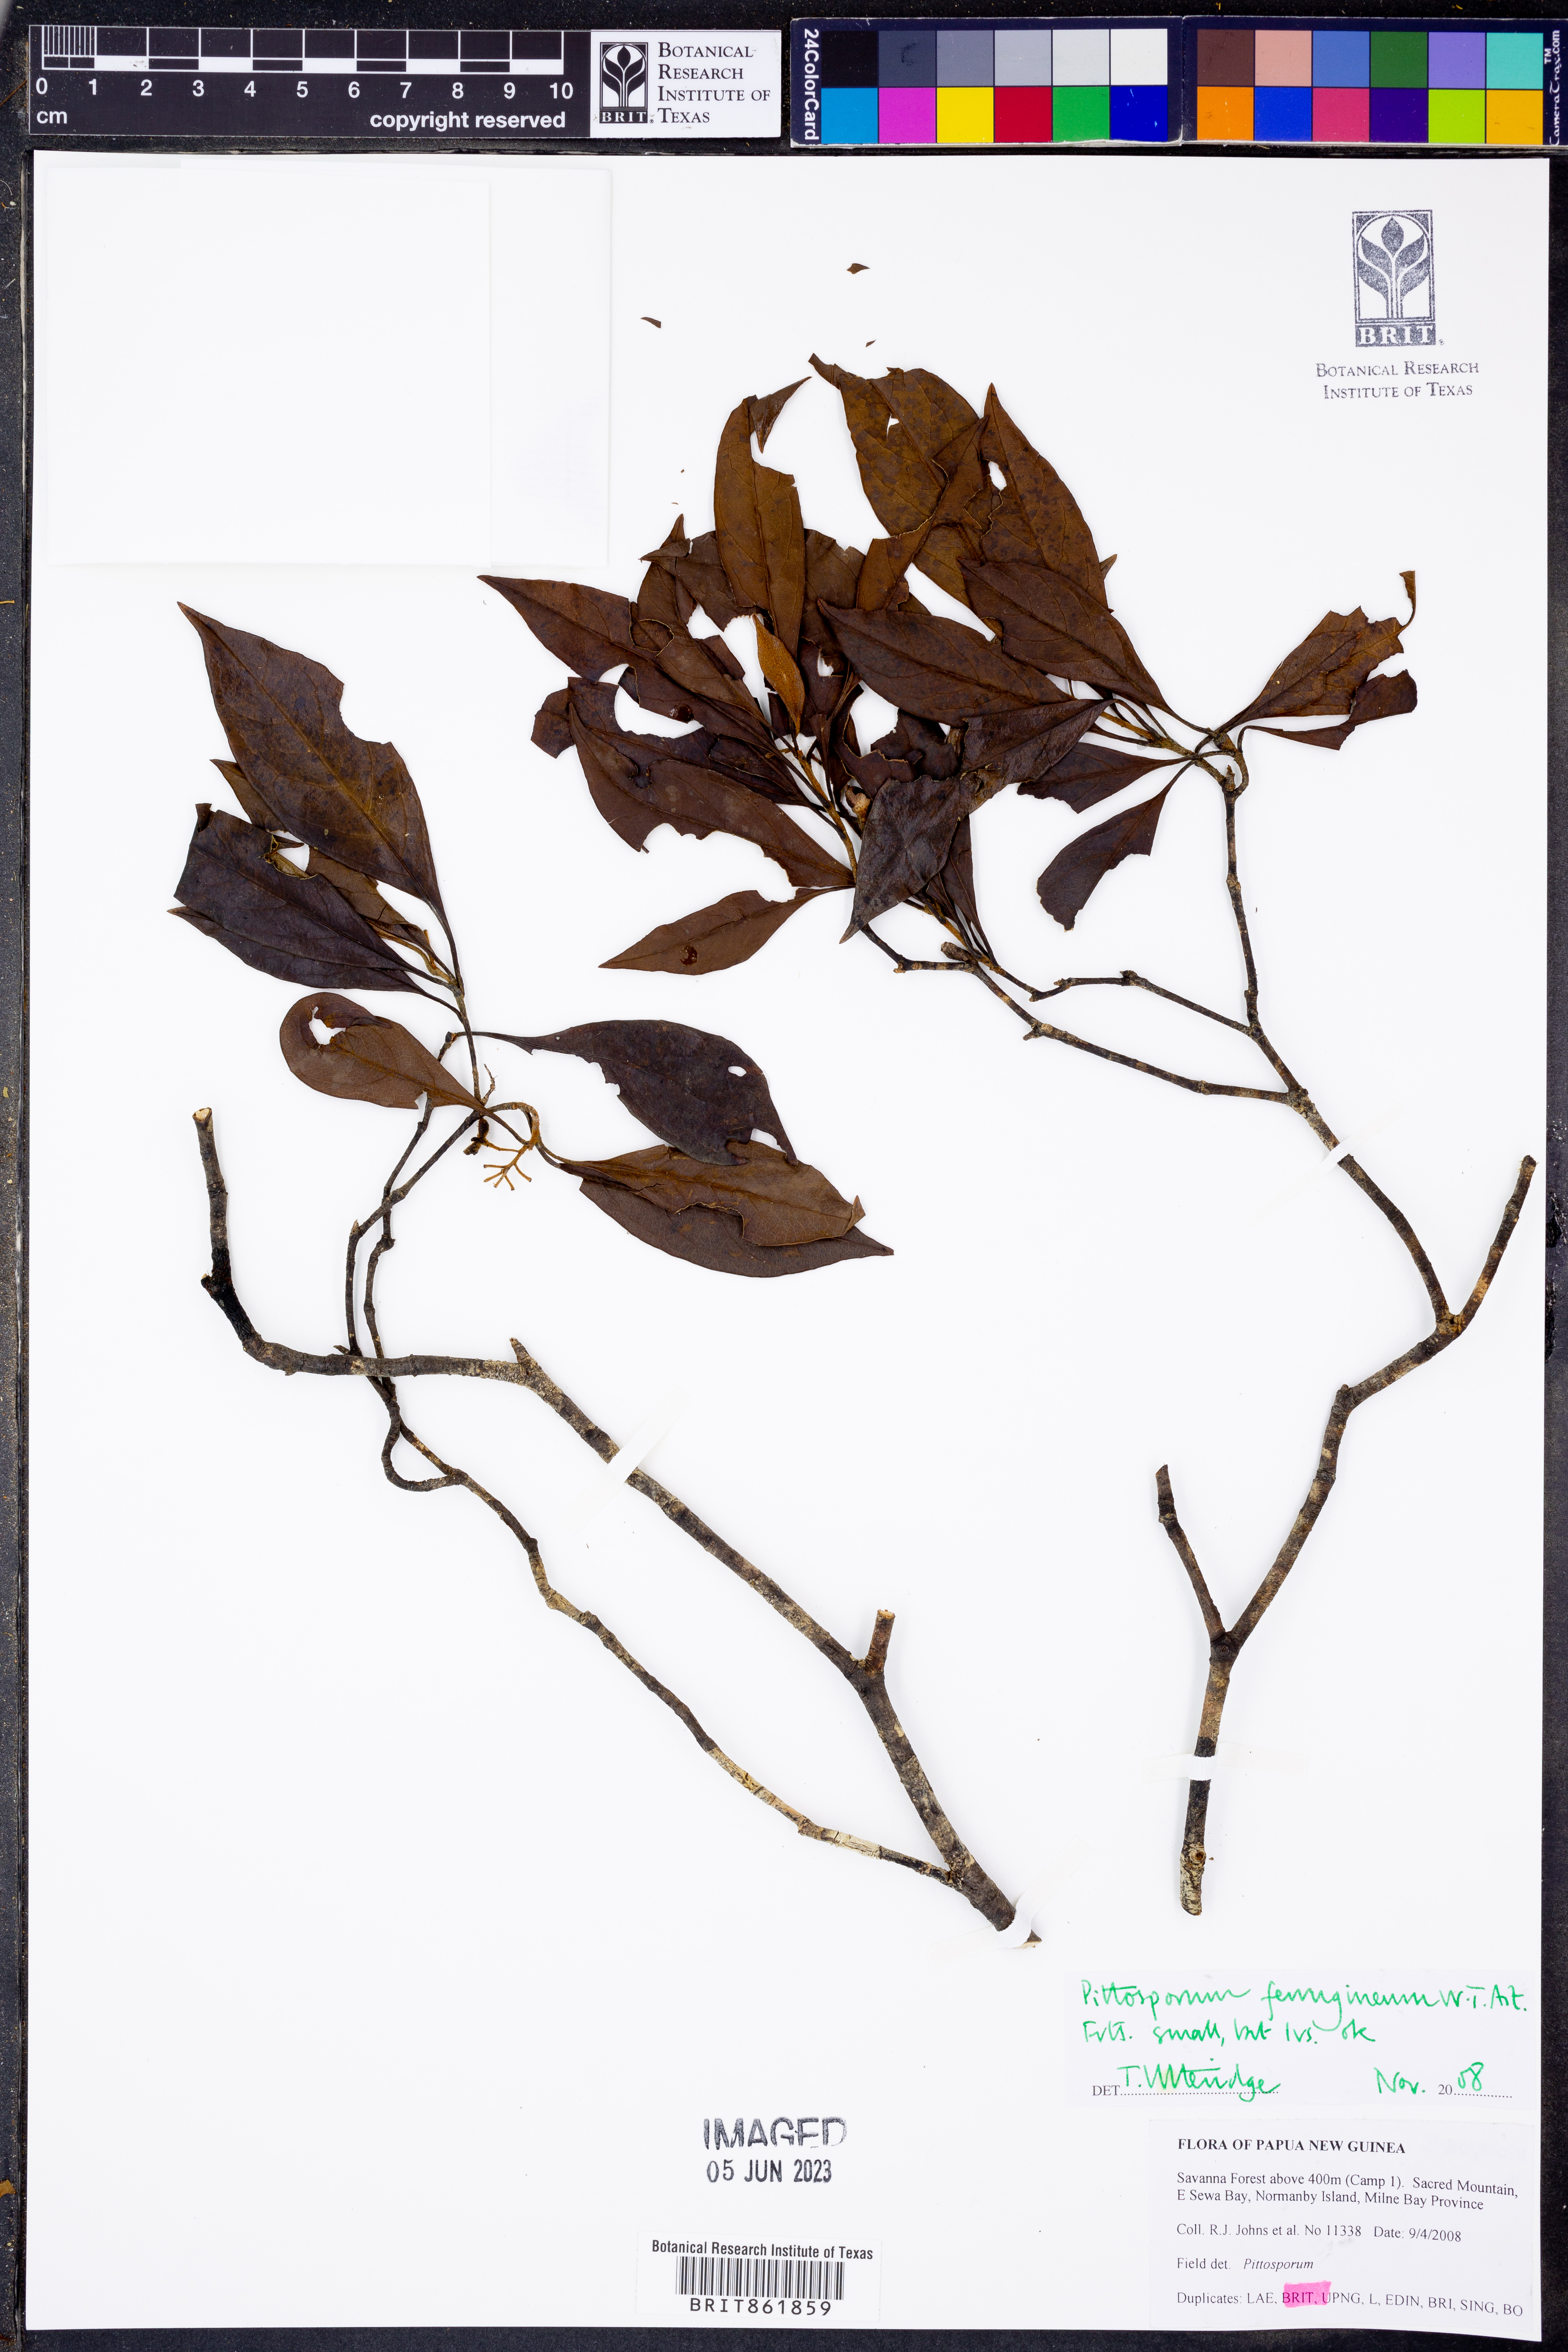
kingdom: Plantae
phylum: Tracheophyta
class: Magnoliopsida
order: Apiales
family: Pittosporaceae
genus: Pittosporum
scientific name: Pittosporum ferrugineum
